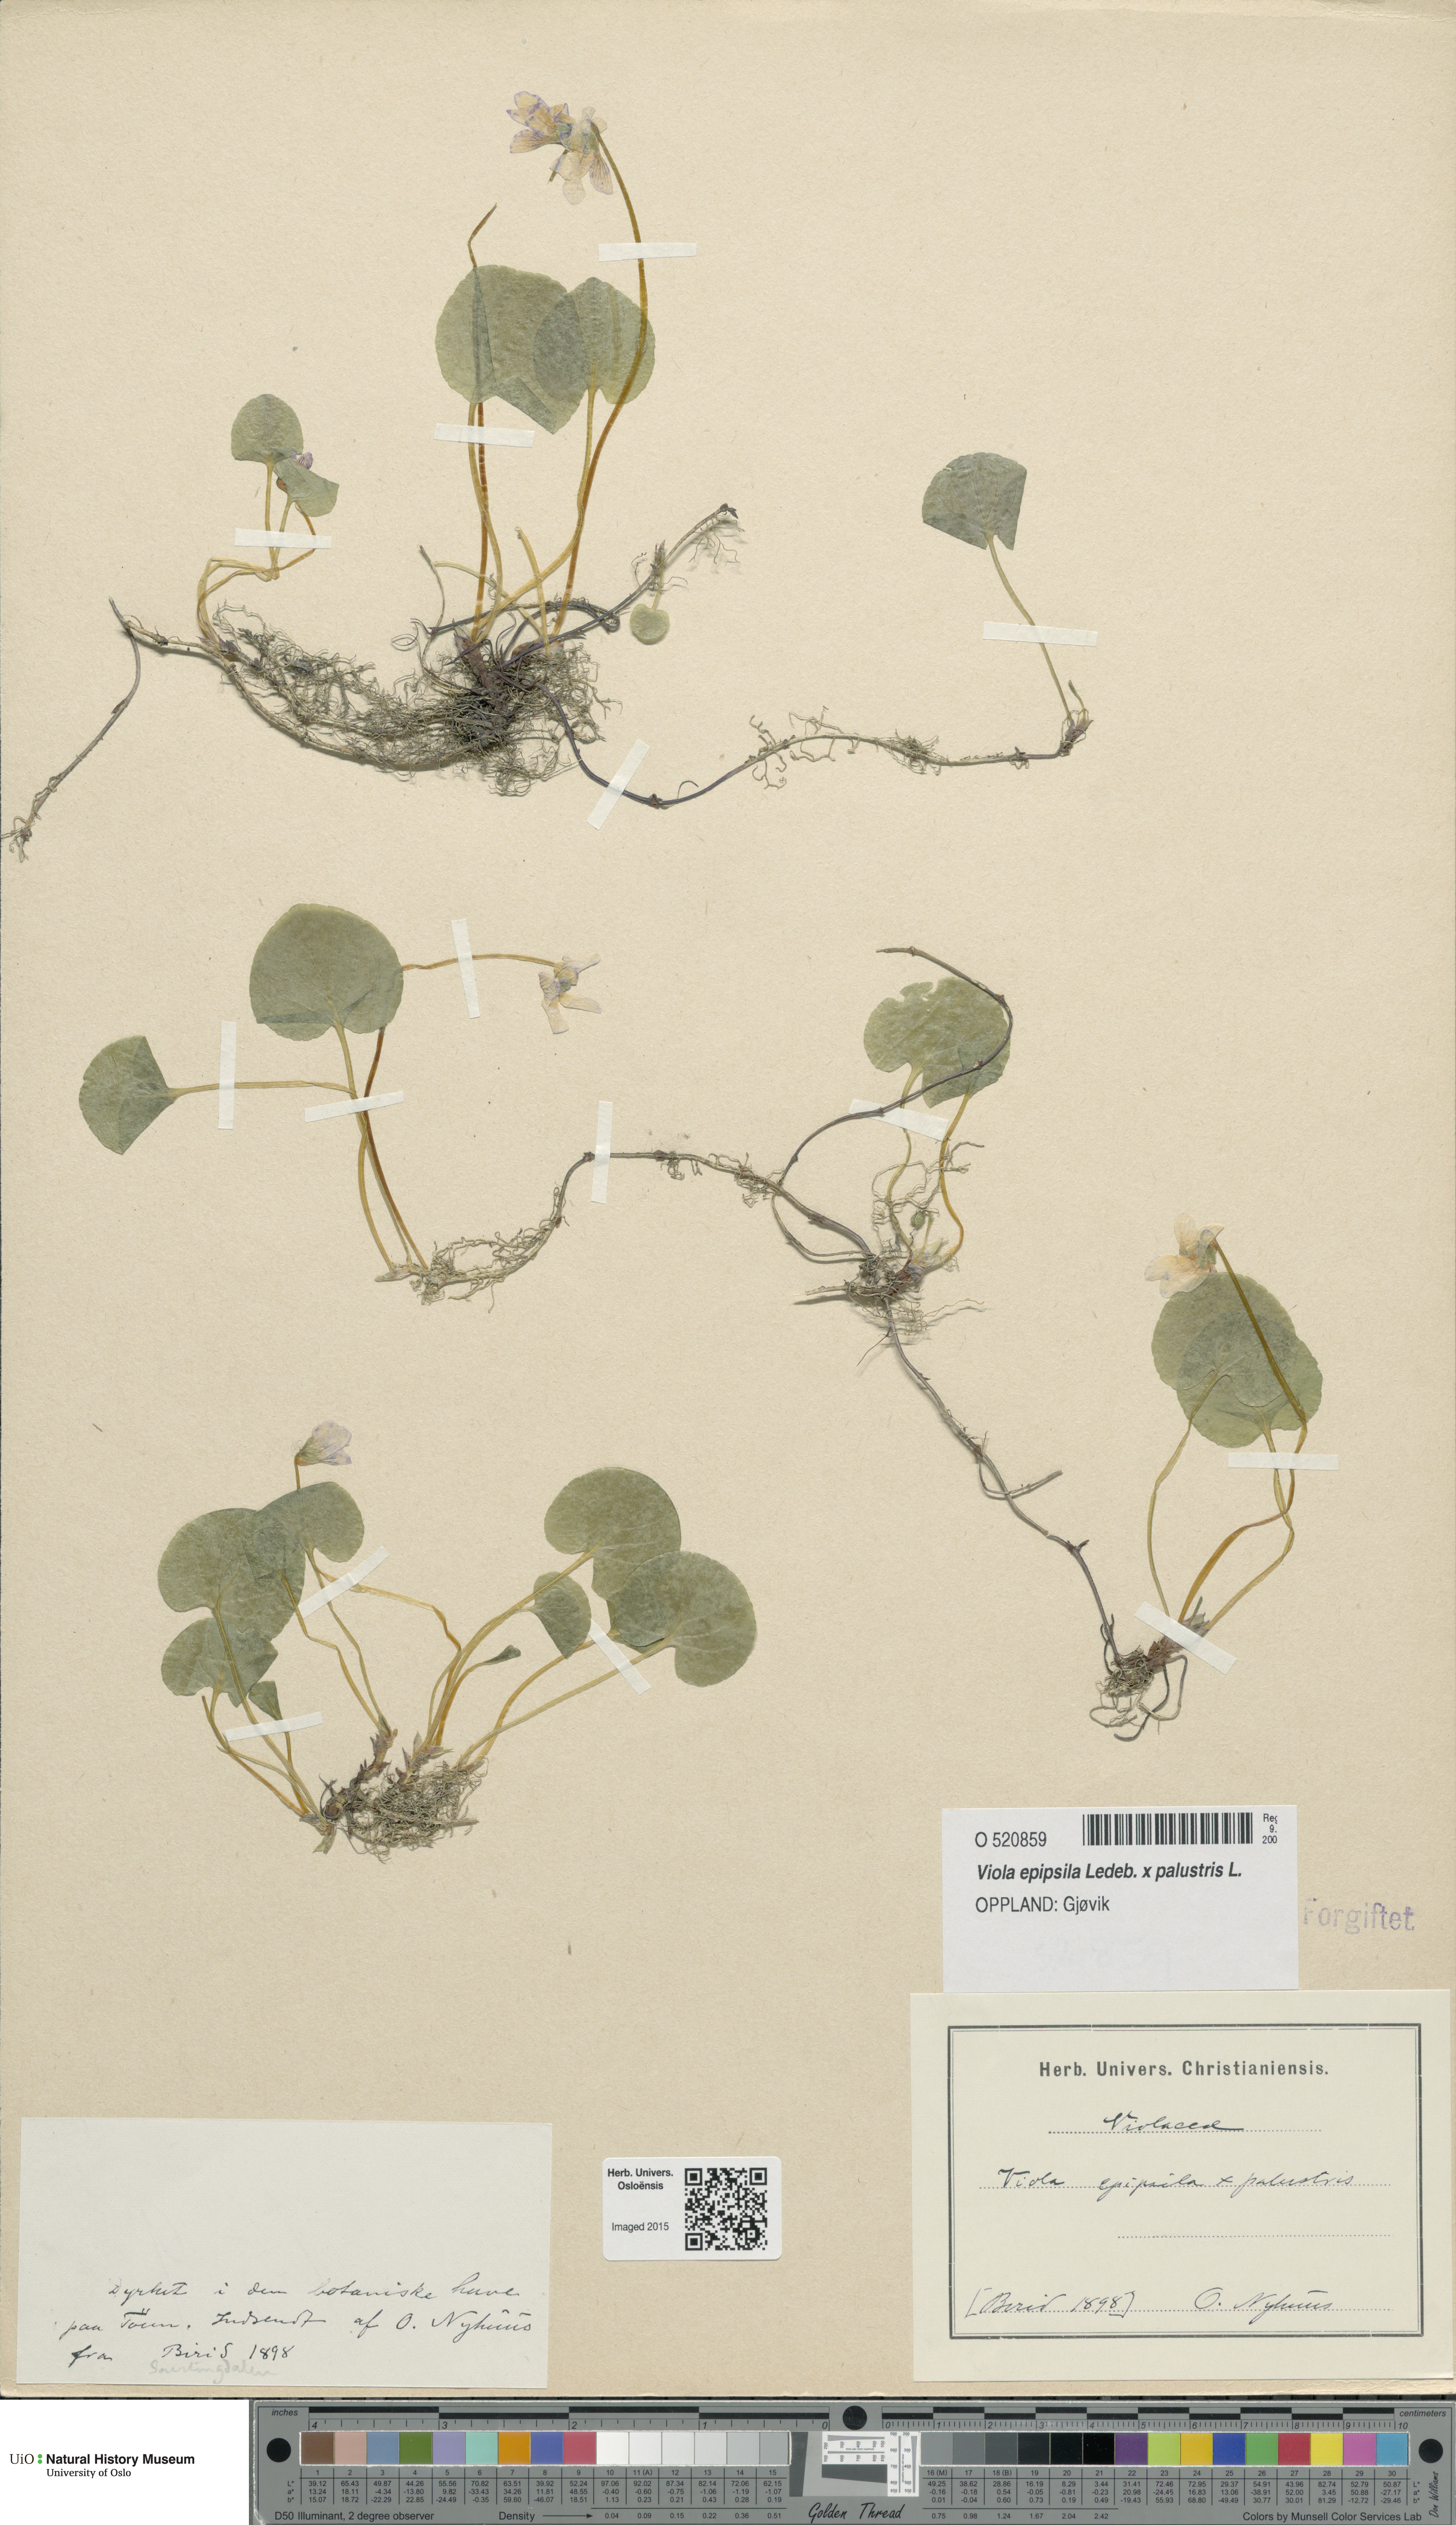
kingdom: Plantae
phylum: Tracheophyta
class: Magnoliopsida
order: Malpighiales
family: Violaceae
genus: Viola
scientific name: Viola
